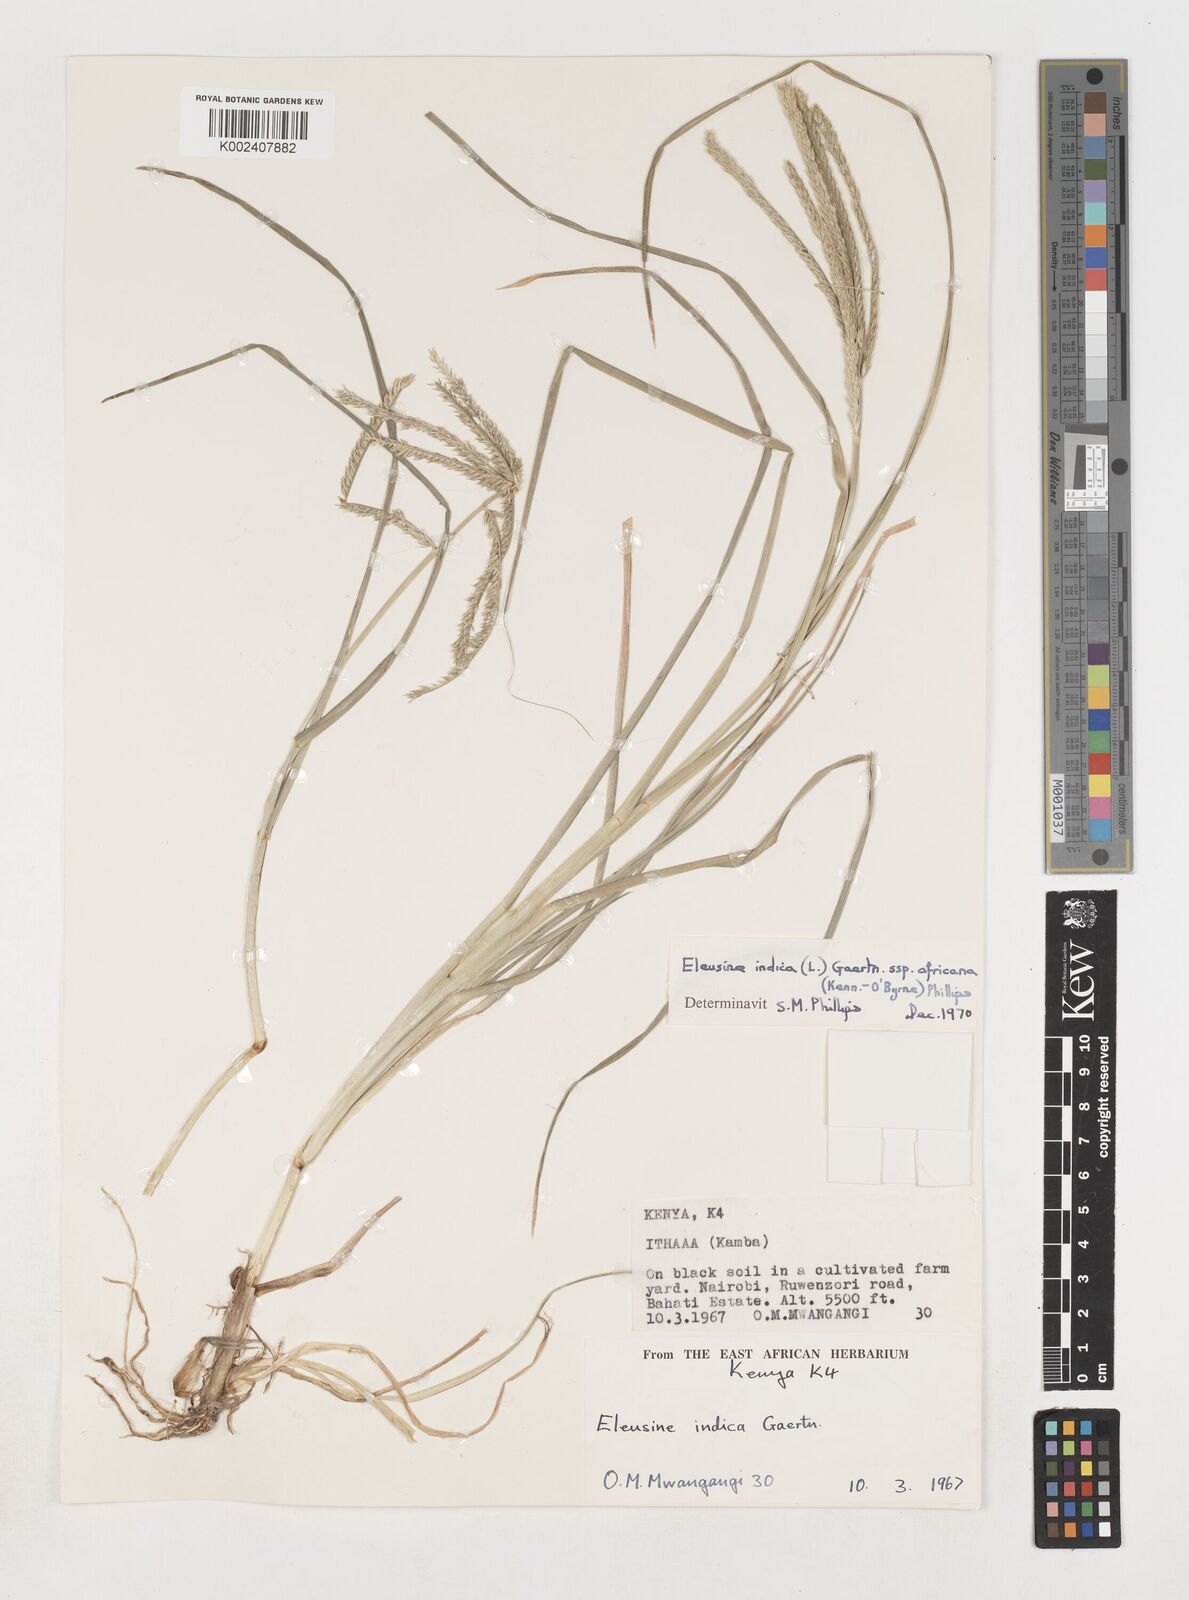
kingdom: Plantae
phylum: Tracheophyta
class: Liliopsida
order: Poales
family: Poaceae
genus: Eleusine
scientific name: Eleusine africana
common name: Wild african finger millet
